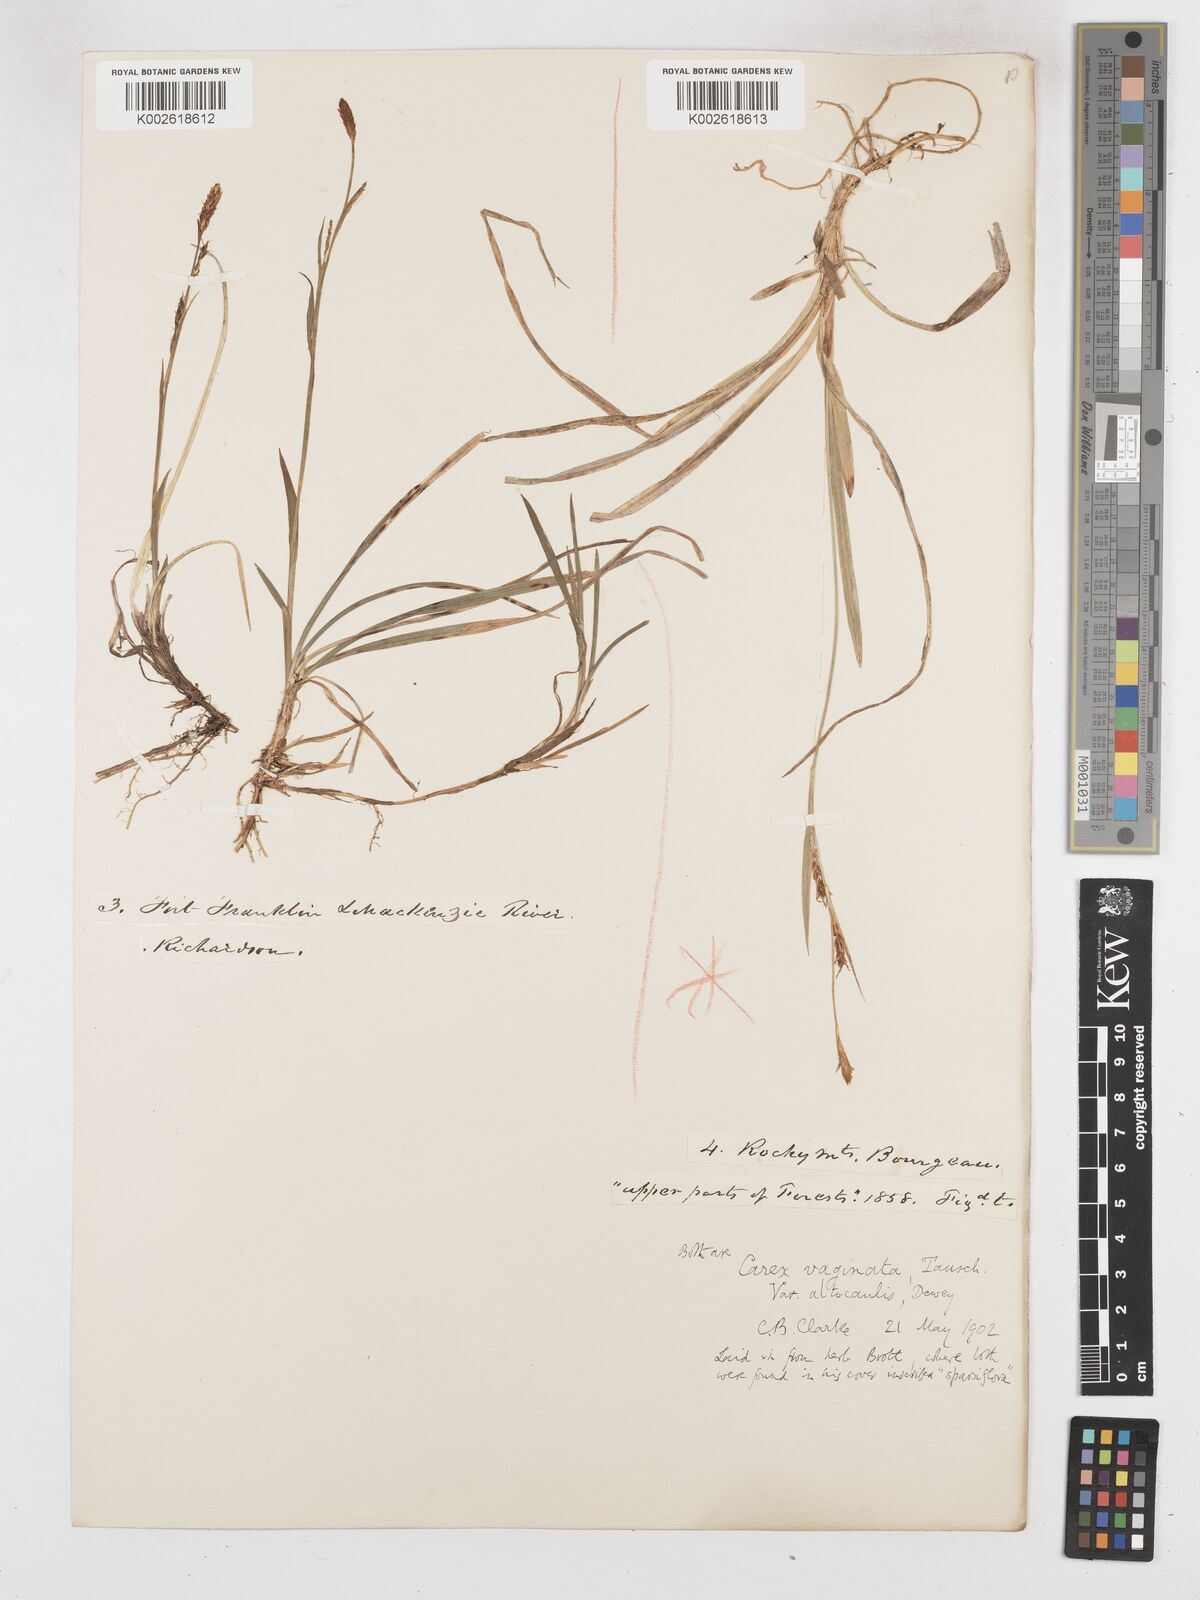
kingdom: Plantae
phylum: Tracheophyta
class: Liliopsida
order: Poales
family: Cyperaceae
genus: Carex
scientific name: Carex vaginata
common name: Sheathed sedge
